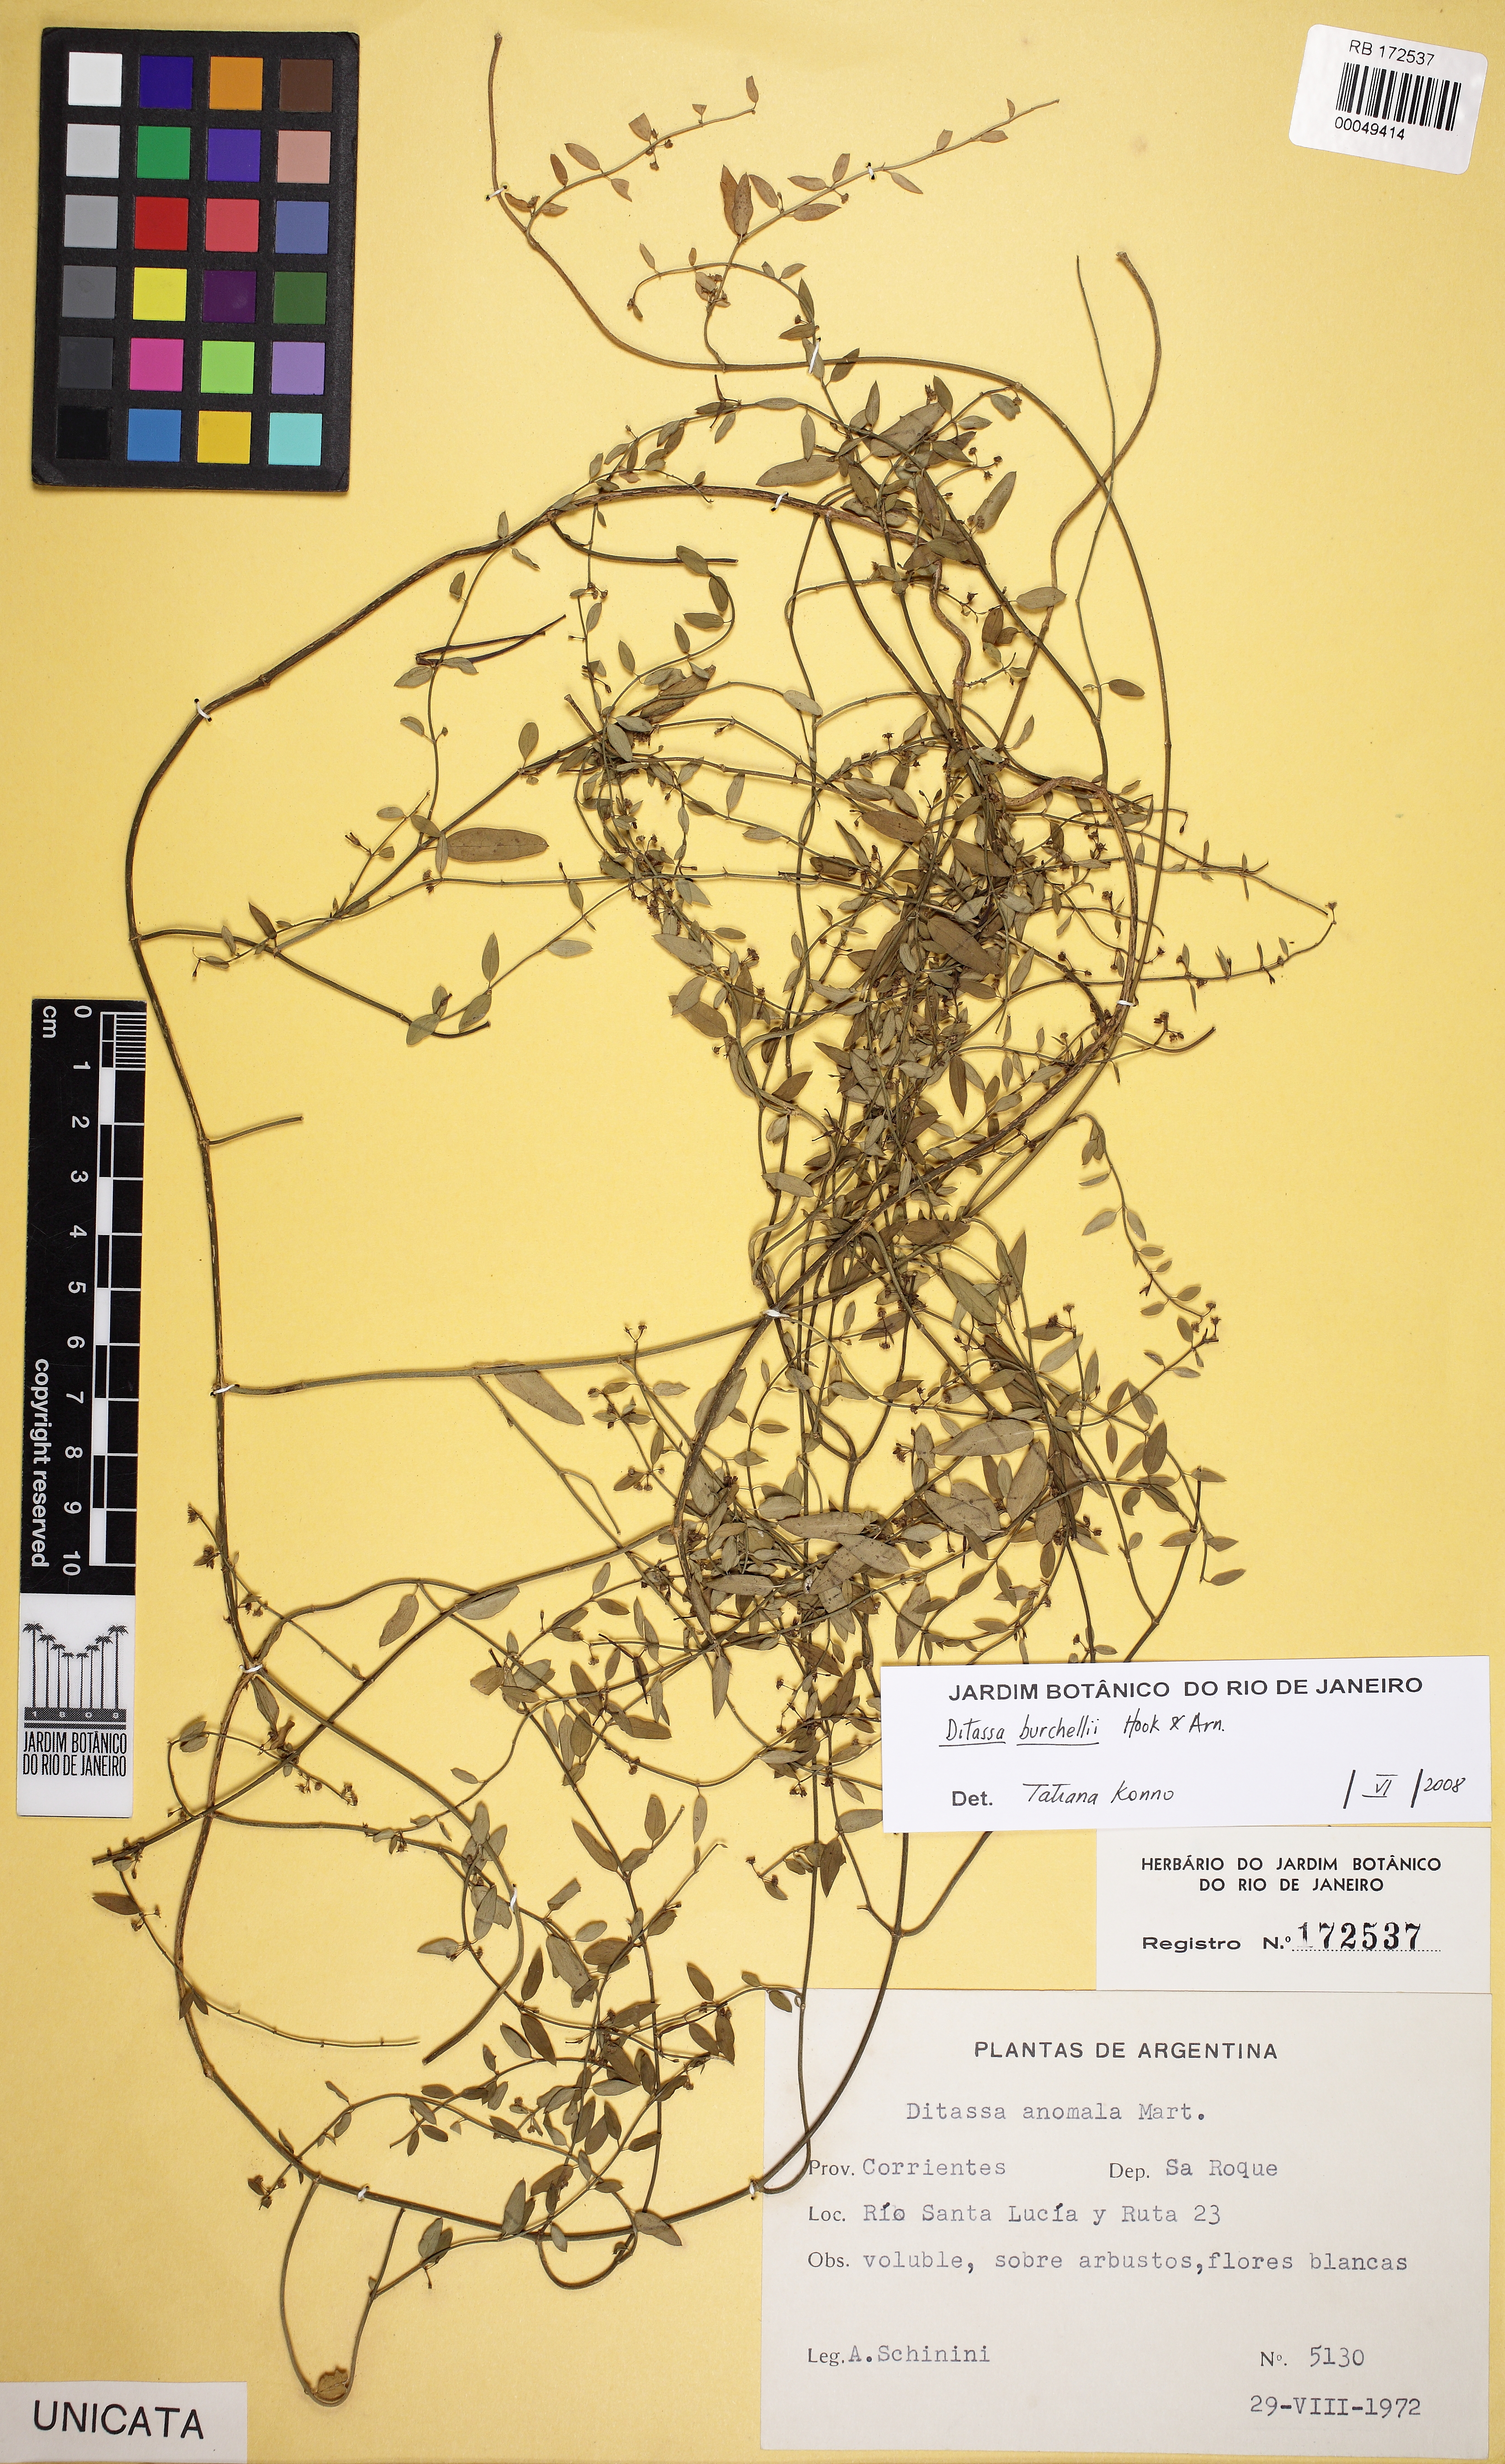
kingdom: Plantae
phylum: Tracheophyta
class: Magnoliopsida
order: Gentianales
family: Apocynaceae
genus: Metastelma
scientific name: Metastelma burchellii
